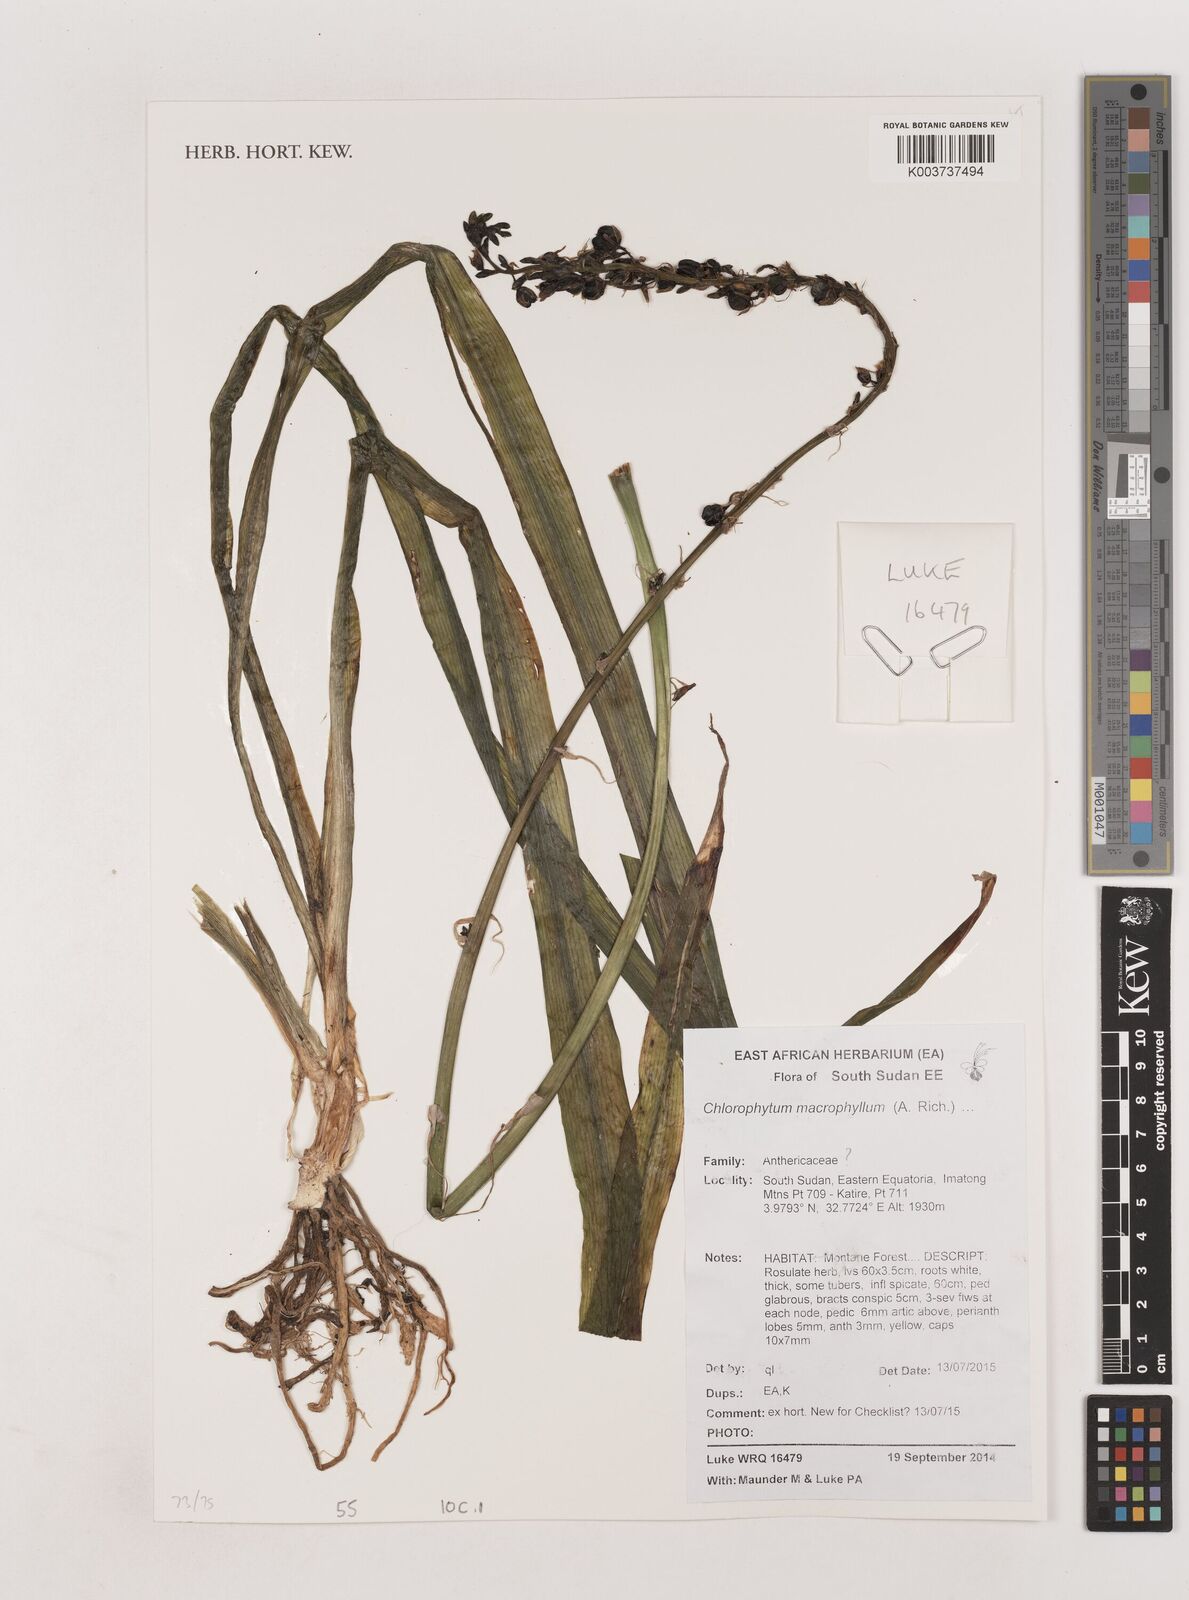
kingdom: Plantae
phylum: Tracheophyta
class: Liliopsida
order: Asparagales
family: Asparagaceae
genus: Chlorophytum
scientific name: Chlorophytum macrophyllum
